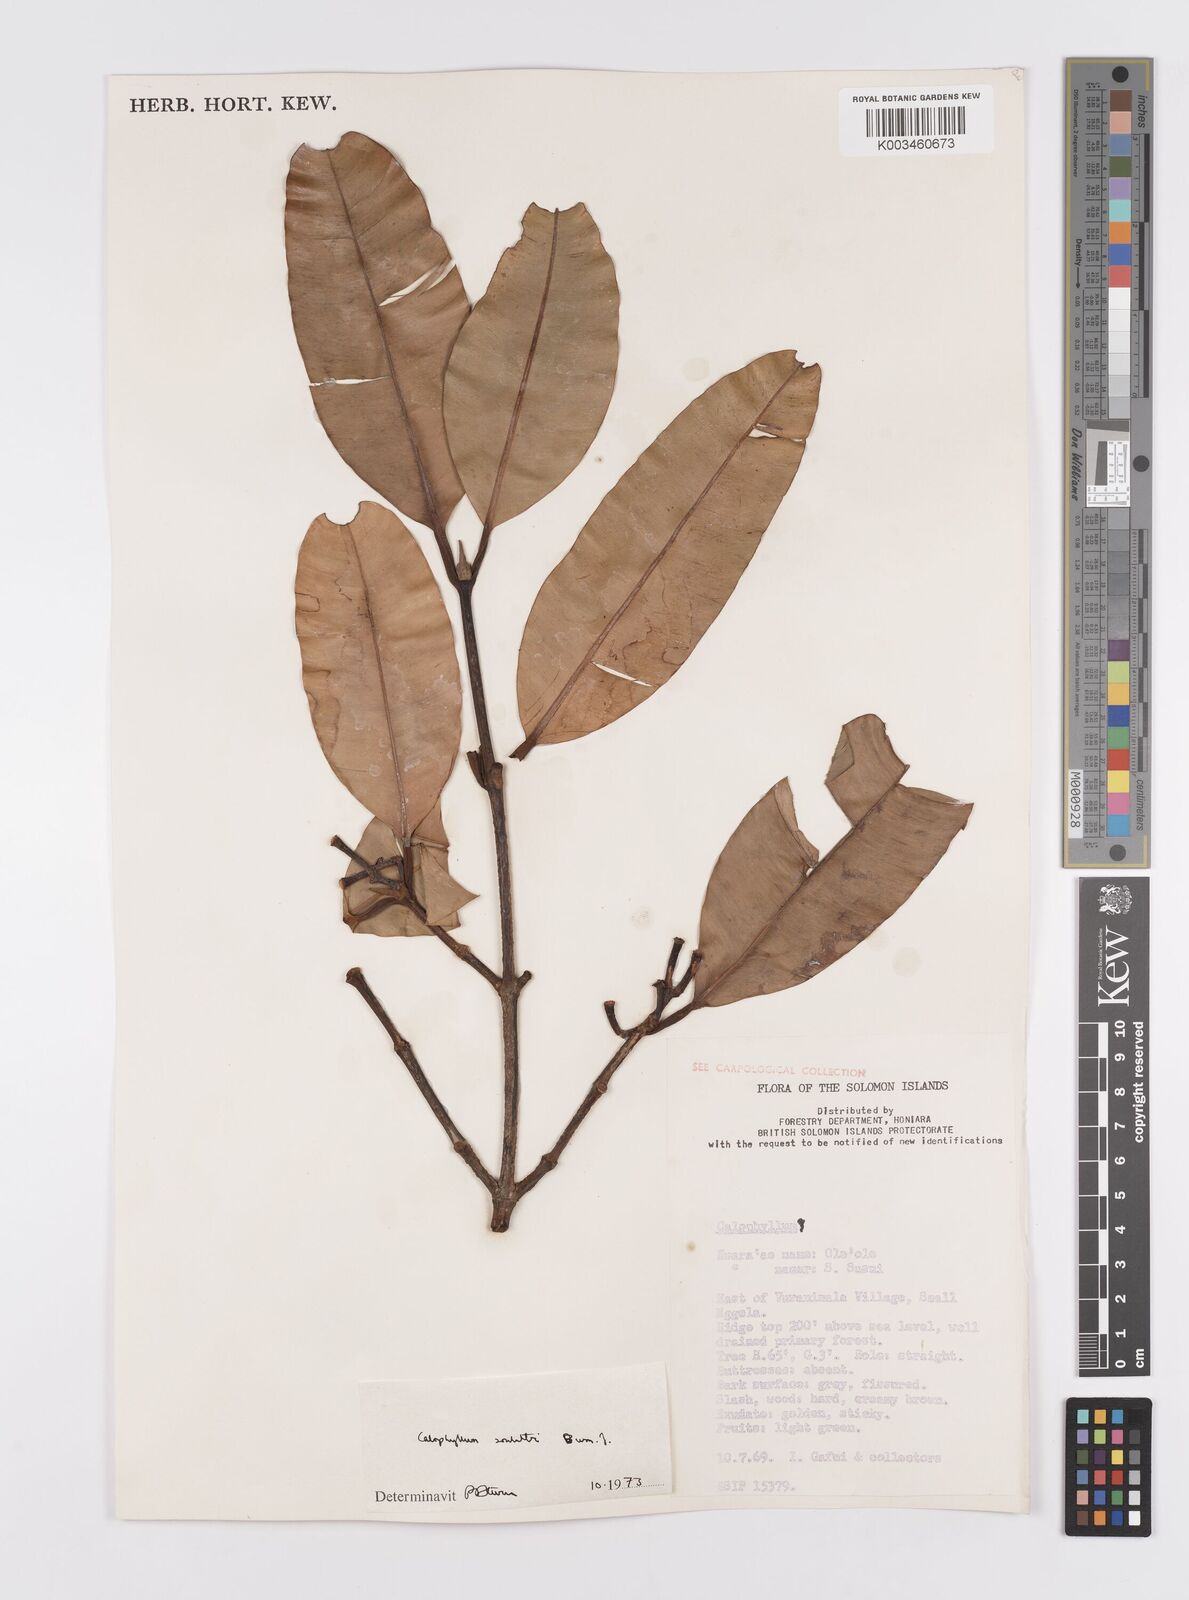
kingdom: Plantae
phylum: Tracheophyta
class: Magnoliopsida
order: Malpighiales
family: Calophyllaceae
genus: Calophyllum
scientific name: Calophyllum soulattri
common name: Bitangoor boonot
